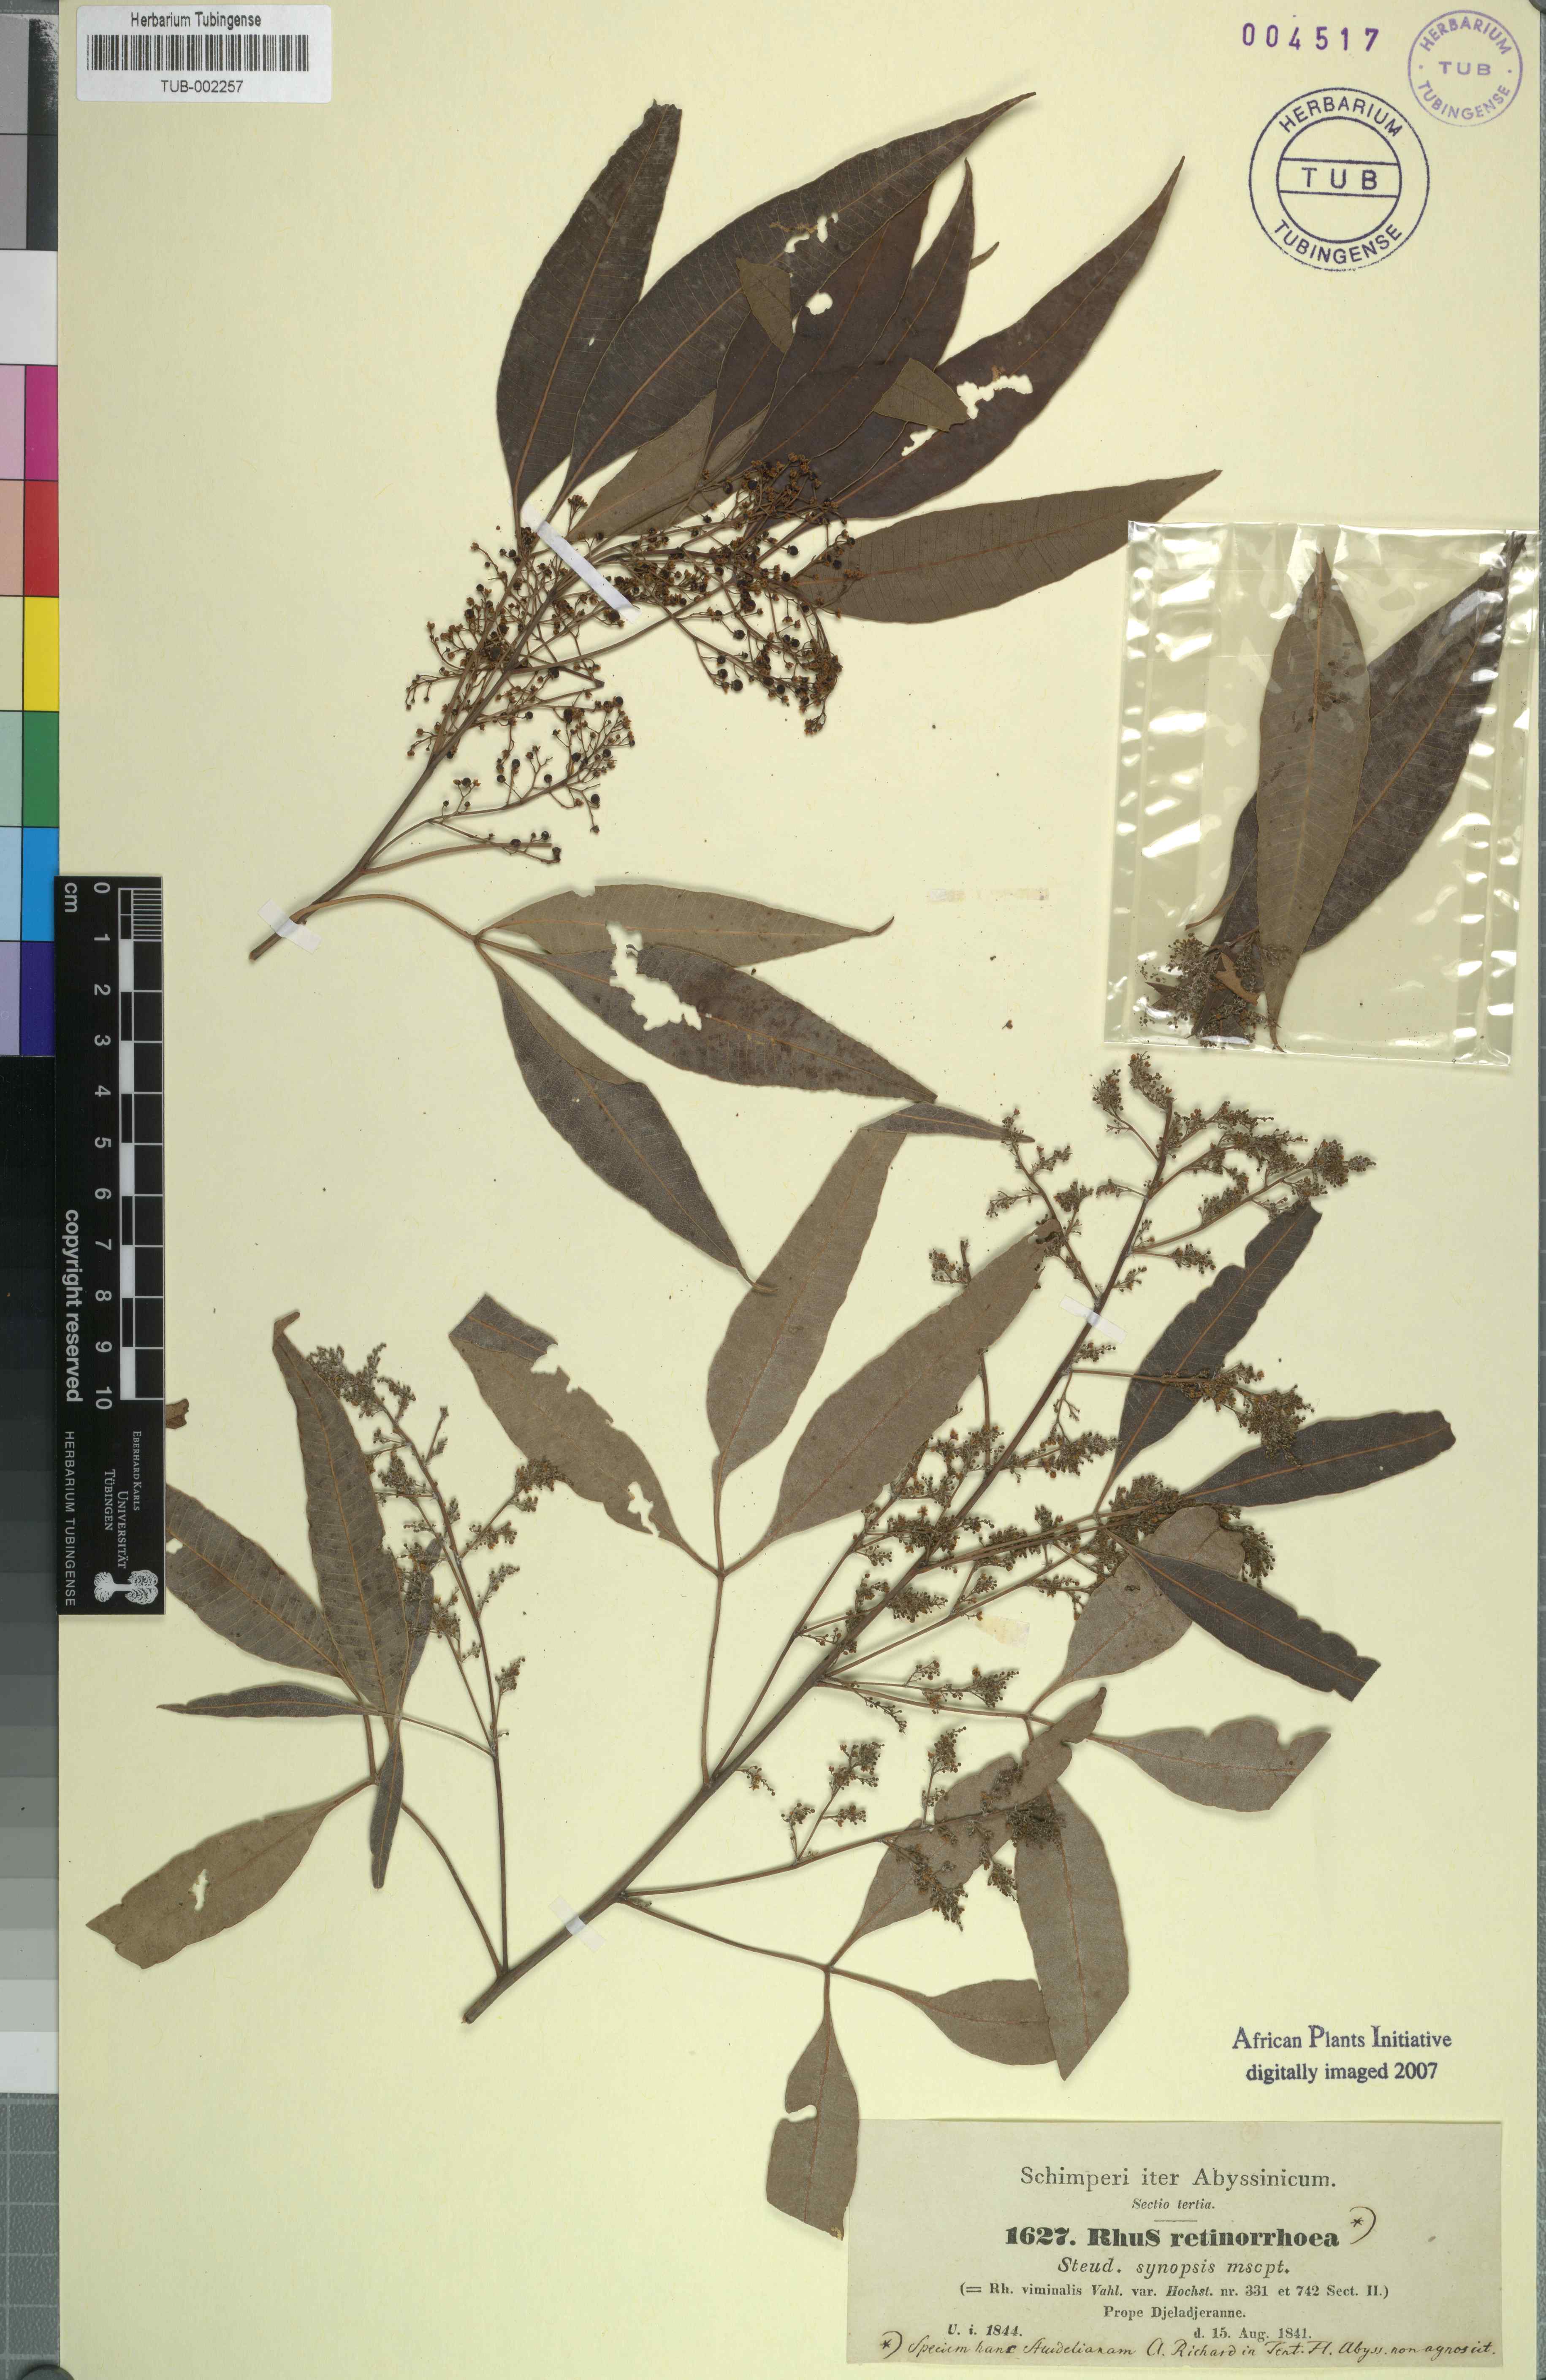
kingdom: Plantae
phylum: Tracheophyta
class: Magnoliopsida
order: Sapindales
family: Anacardiaceae
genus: Rhus
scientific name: Rhus retinorrhaea
